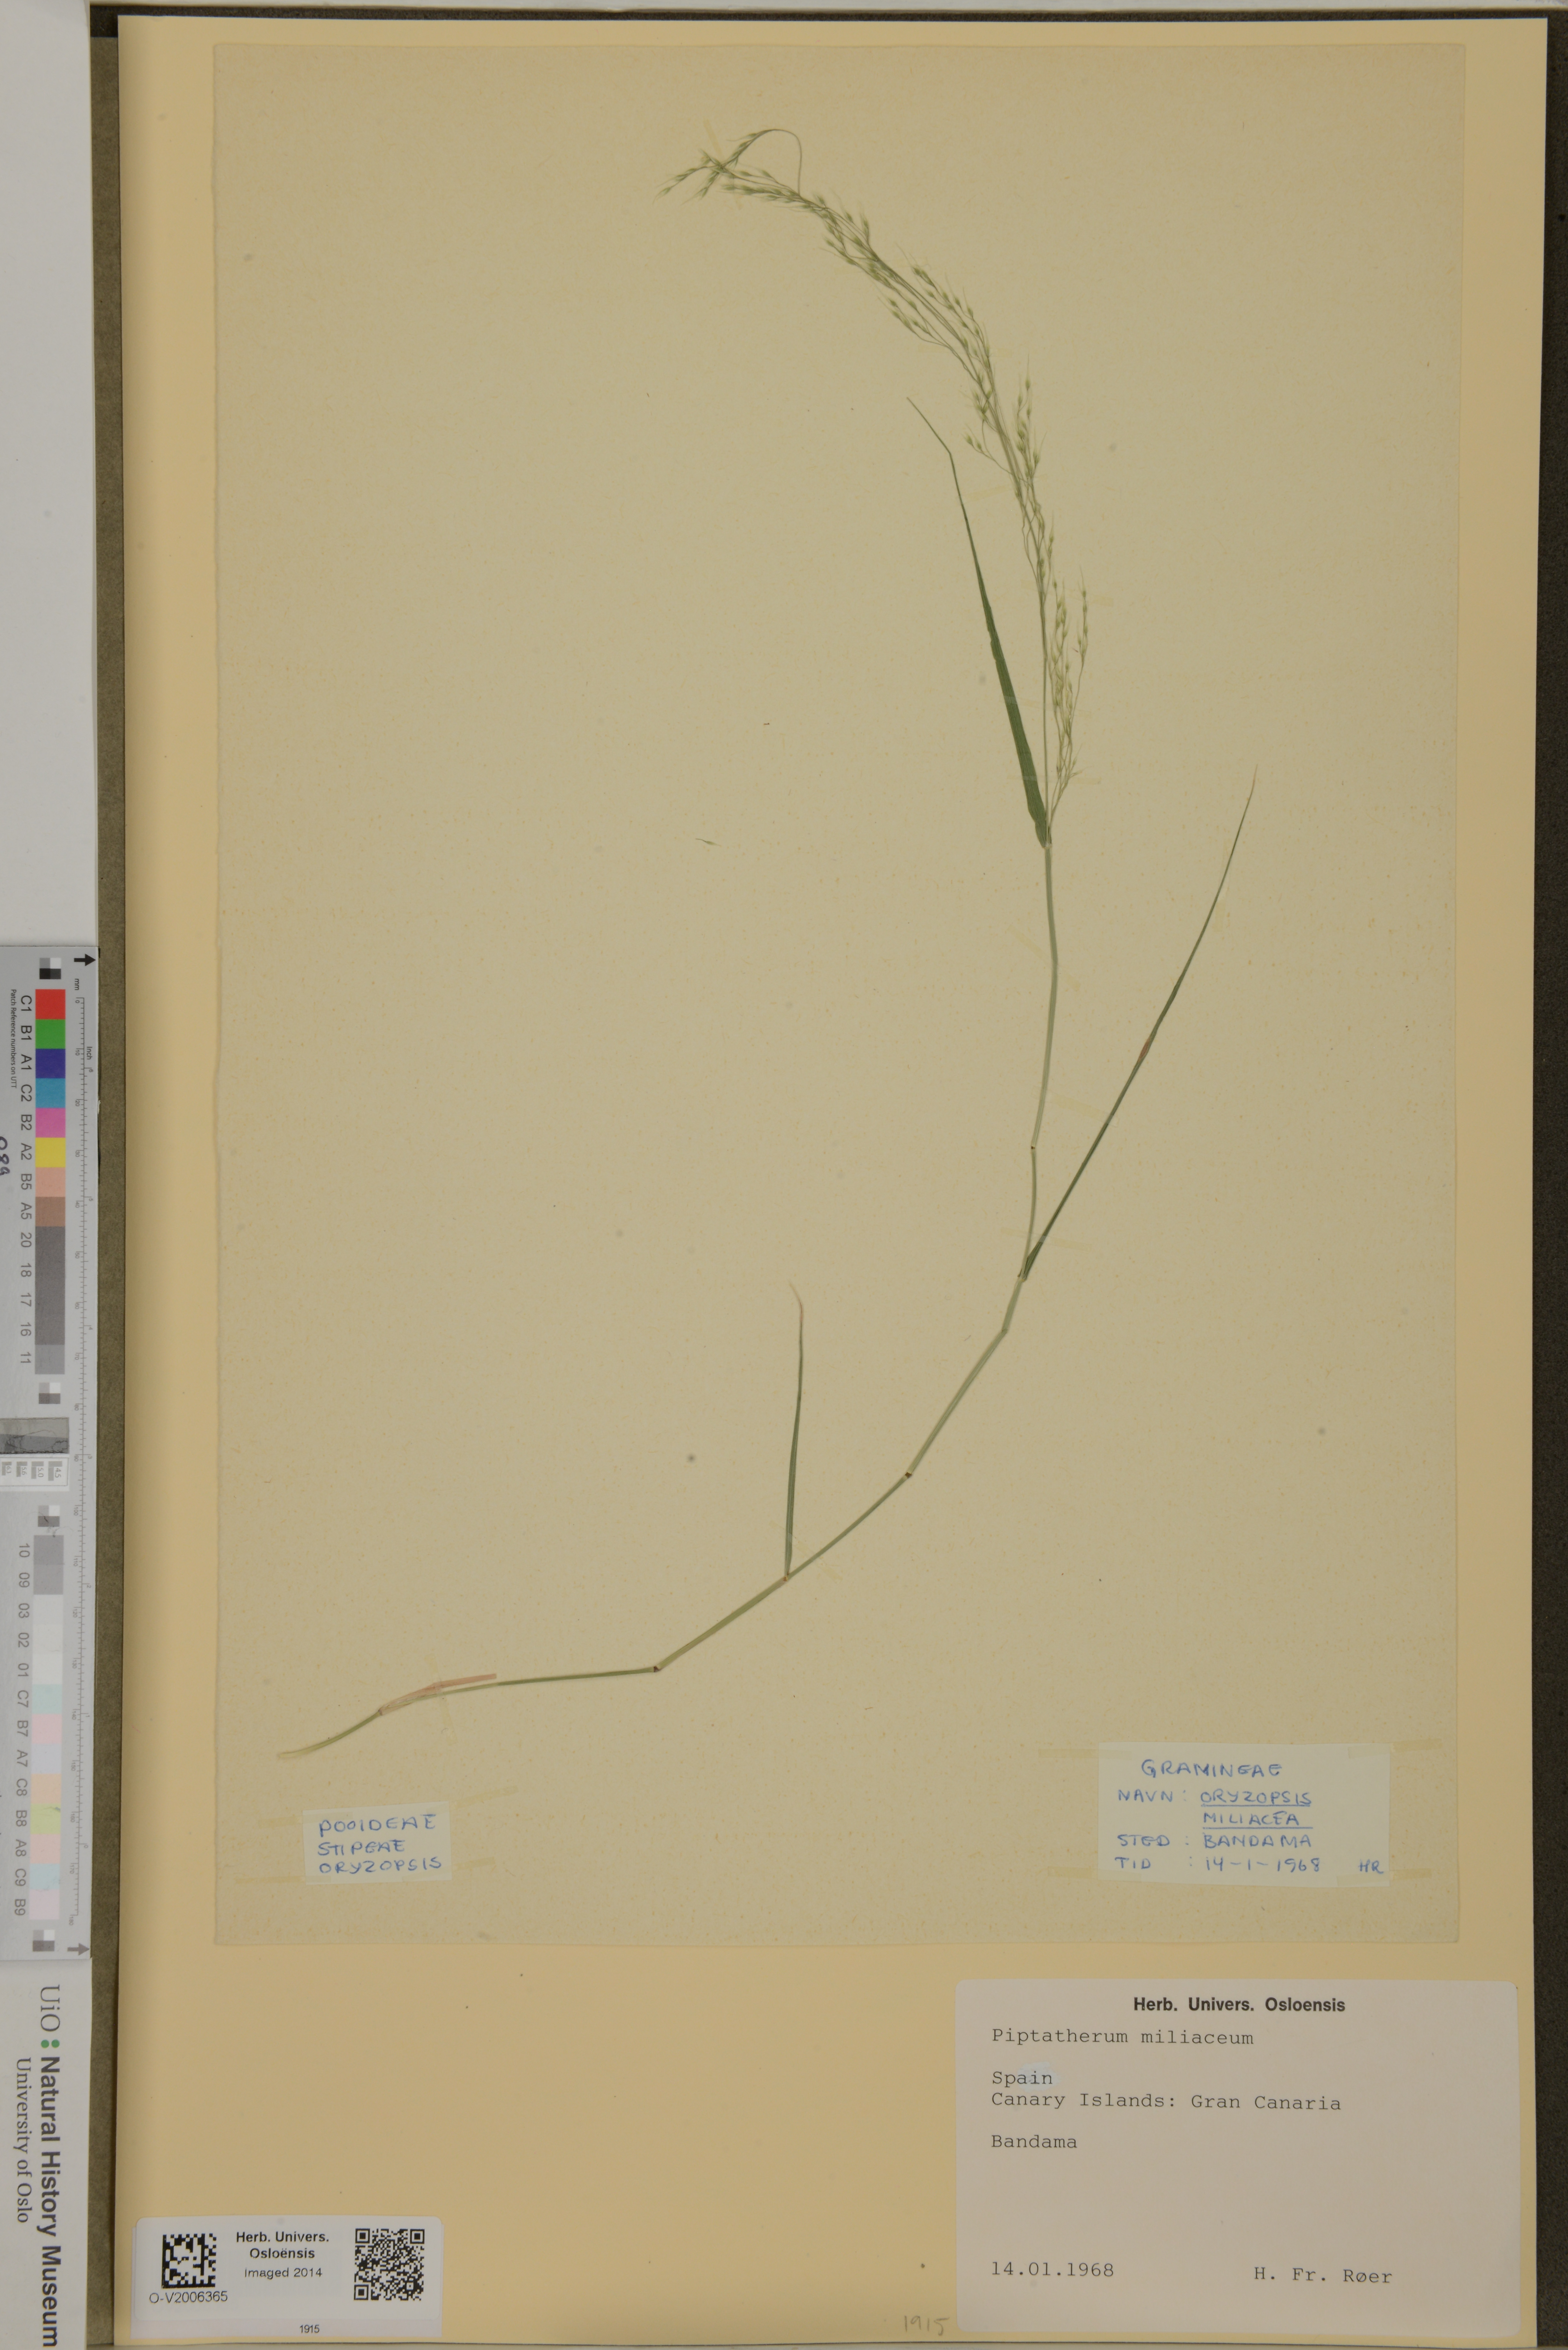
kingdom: Plantae
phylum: Tracheophyta
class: Liliopsida
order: Poales
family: Poaceae
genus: Oloptum
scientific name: Oloptum miliaceum
